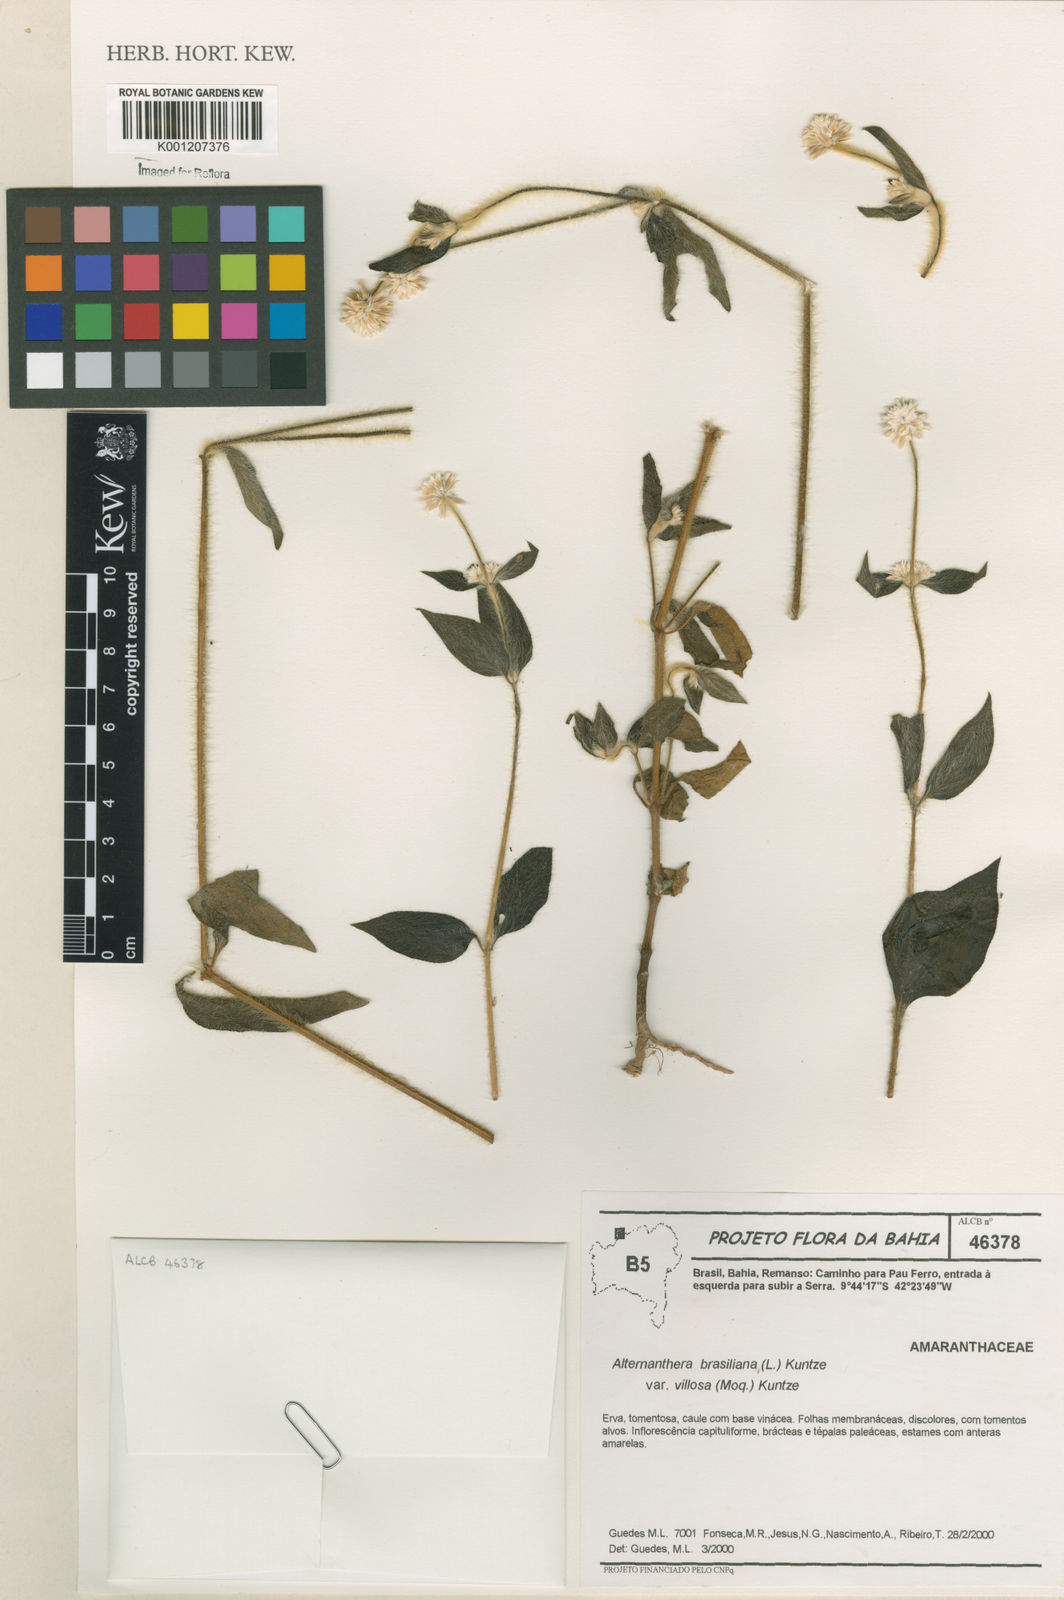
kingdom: Plantae
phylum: Tracheophyta
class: Magnoliopsida
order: Caryophyllales
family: Amaranthaceae
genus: Alternanthera
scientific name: Alternanthera ramosissima
